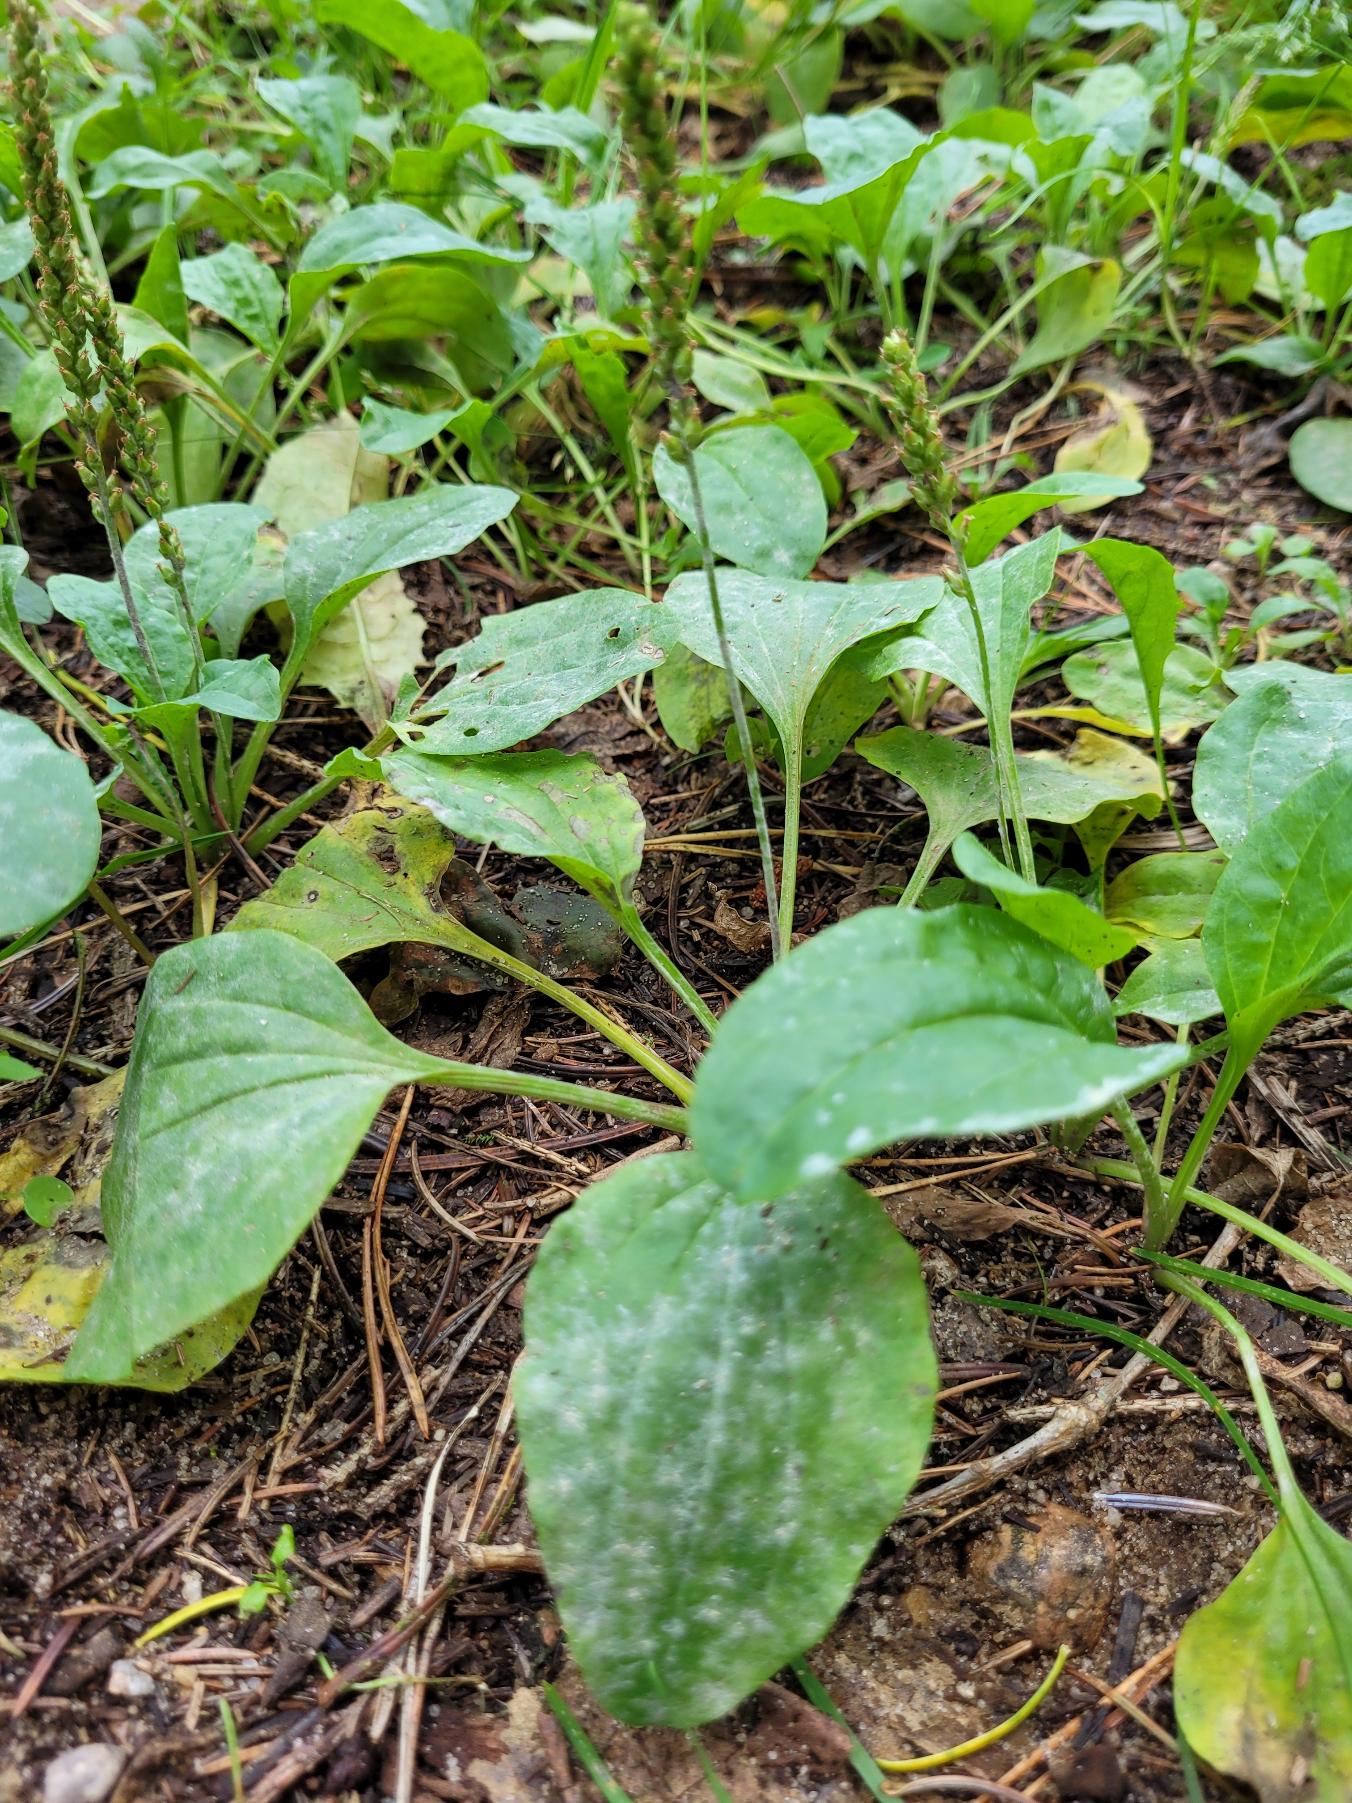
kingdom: Plantae
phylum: Tracheophyta
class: Magnoliopsida
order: Lamiales
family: Plantaginaceae
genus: Plantago
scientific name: Plantago major
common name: Glat vejbred
